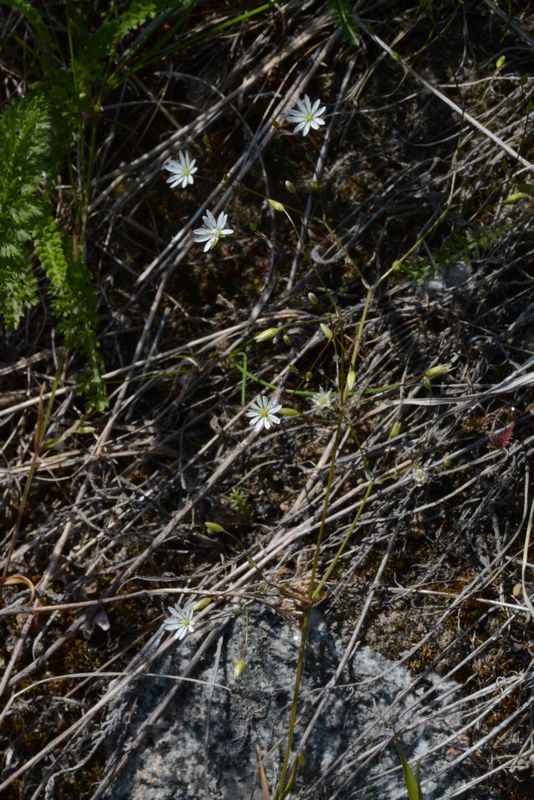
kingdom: Plantae
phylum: Tracheophyta
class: Magnoliopsida
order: Caryophyllales
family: Caryophyllaceae
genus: Stellaria
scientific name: Stellaria graminea
